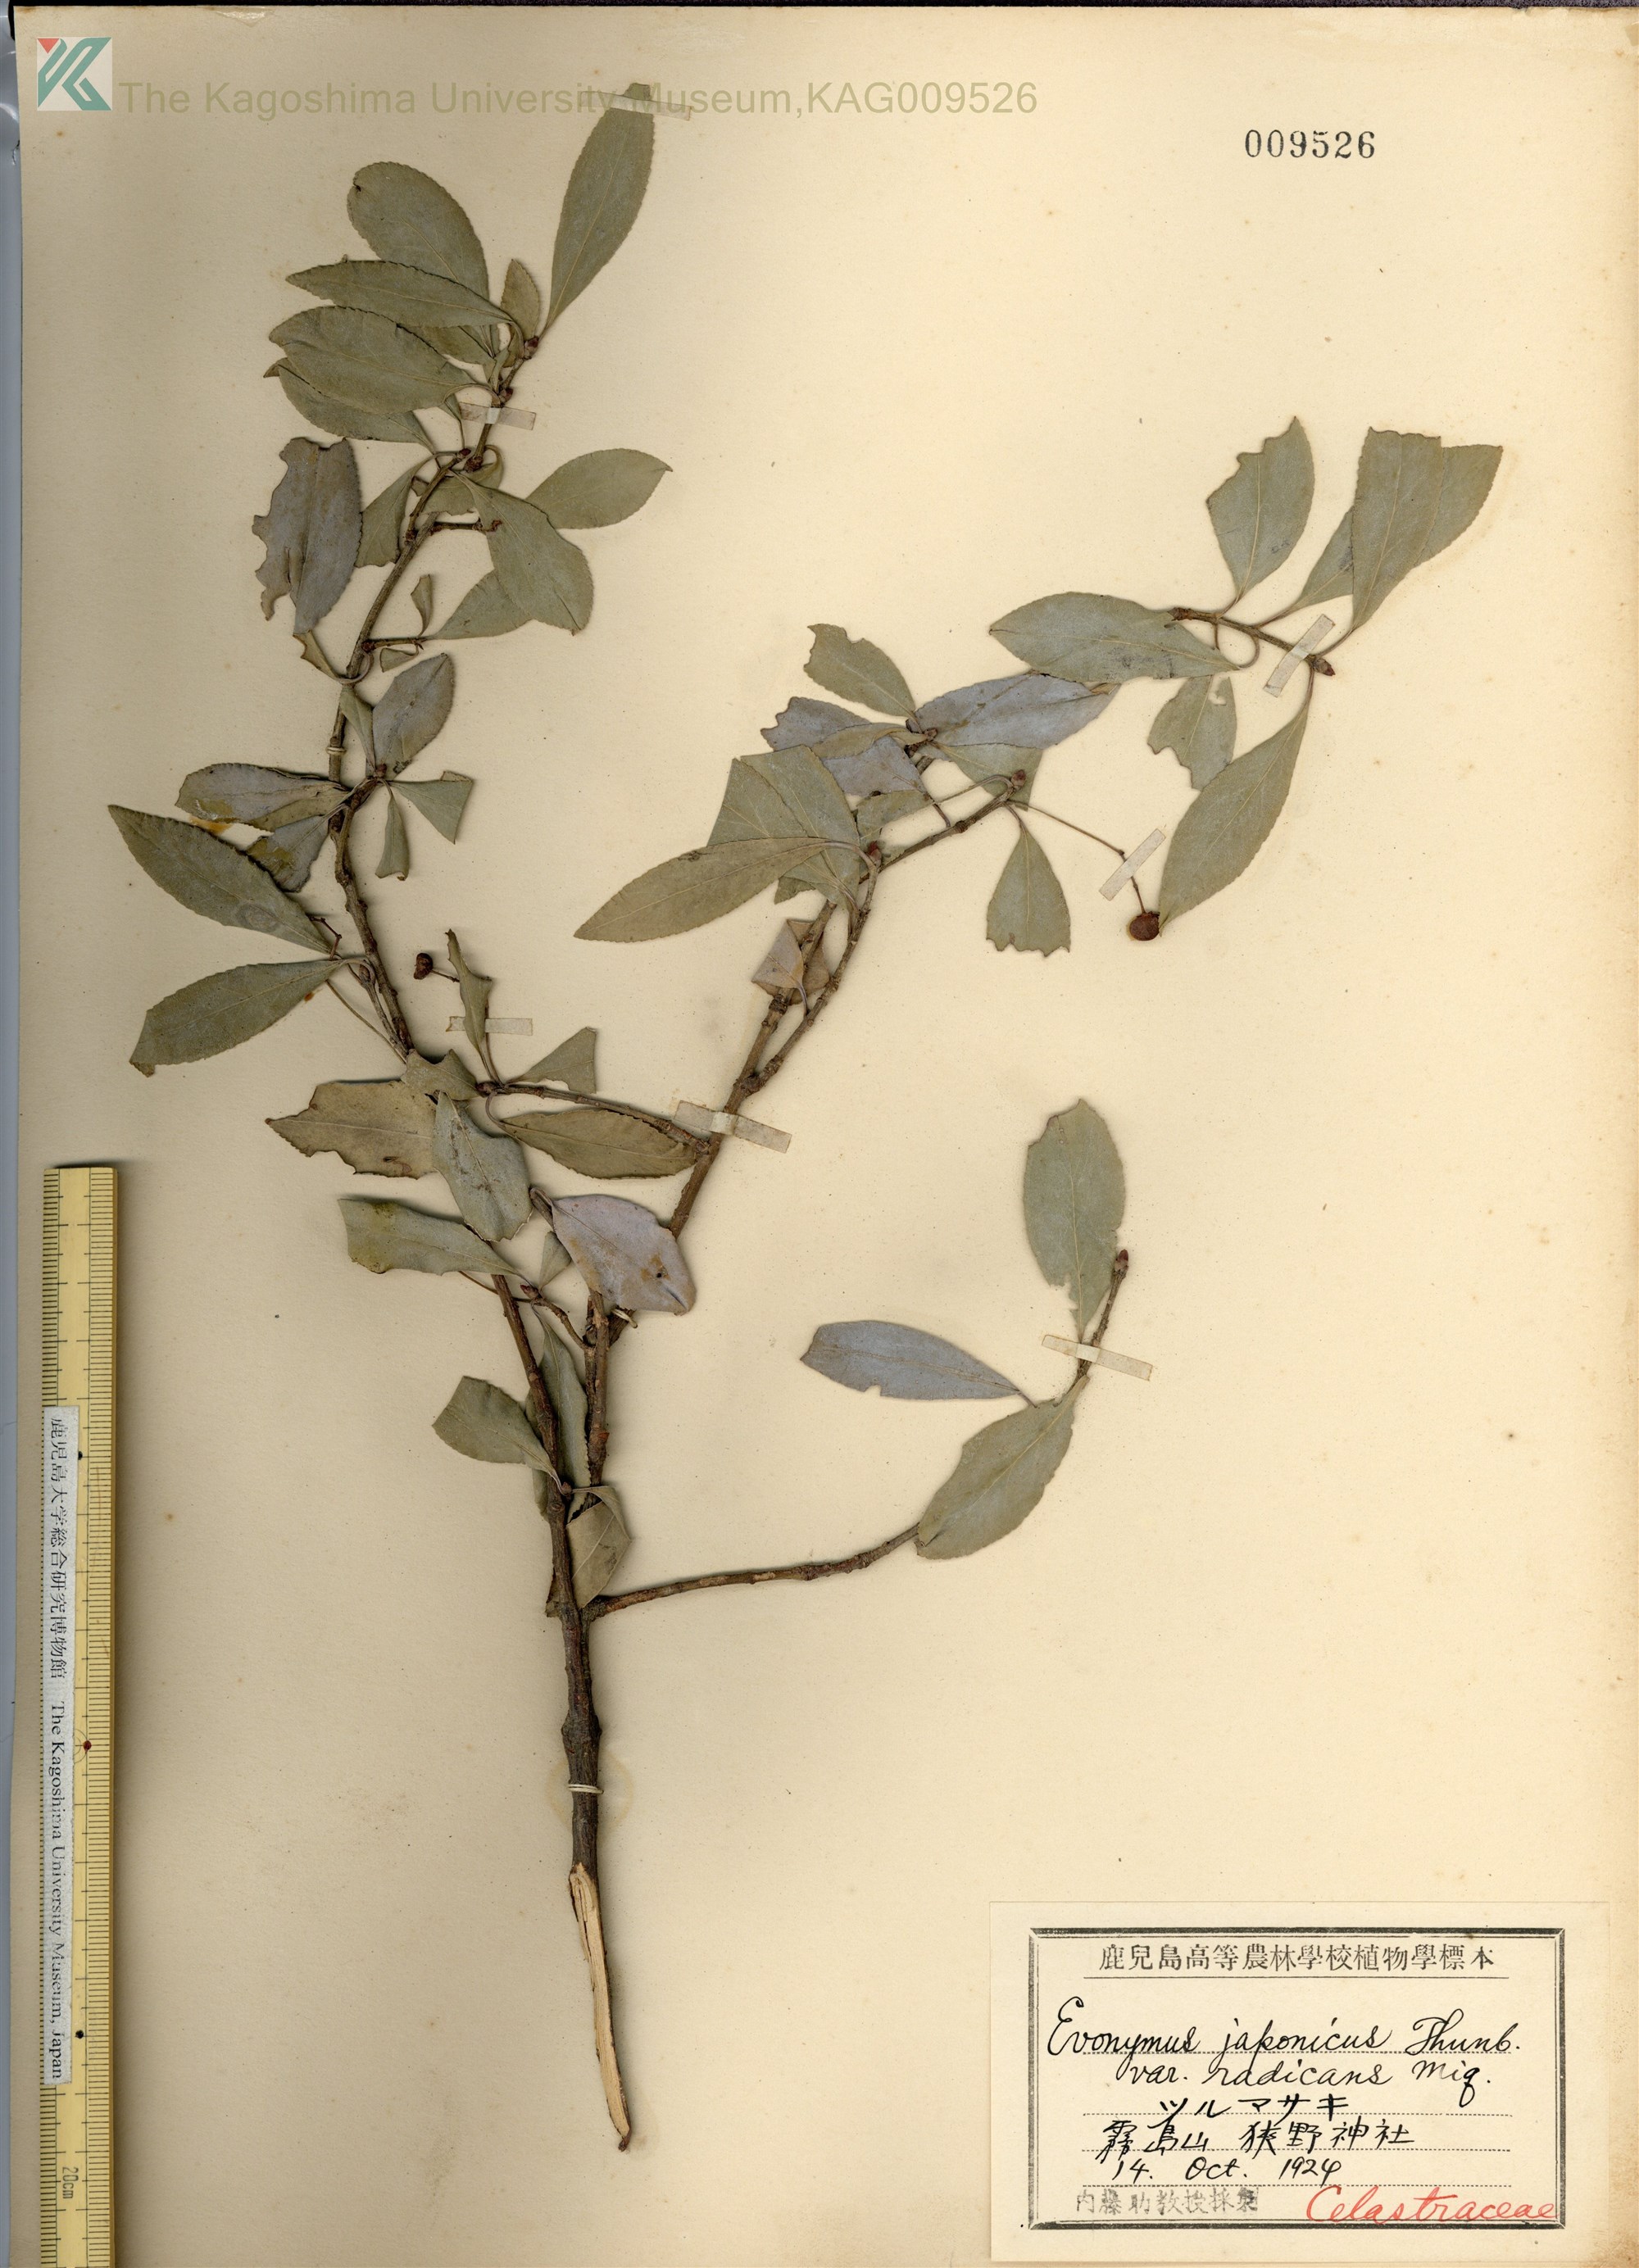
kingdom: Plantae
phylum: Tracheophyta
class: Magnoliopsida
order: Celastrales
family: Celastraceae
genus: Euonymus
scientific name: Euonymus fortunei
